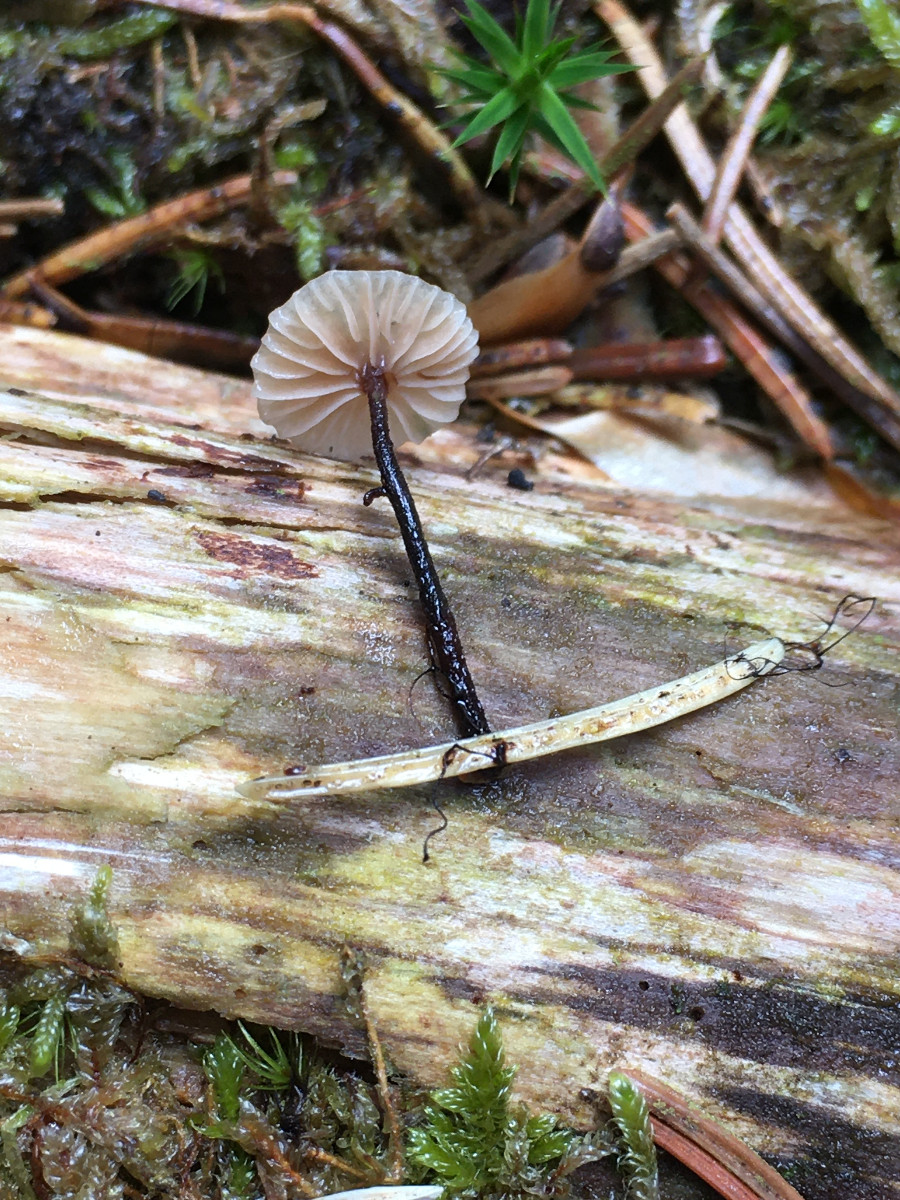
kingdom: Fungi
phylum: Basidiomycota
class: Agaricomycetes
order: Agaricales
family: Omphalotaceae
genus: Paragymnopus
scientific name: Paragymnopus perforans
